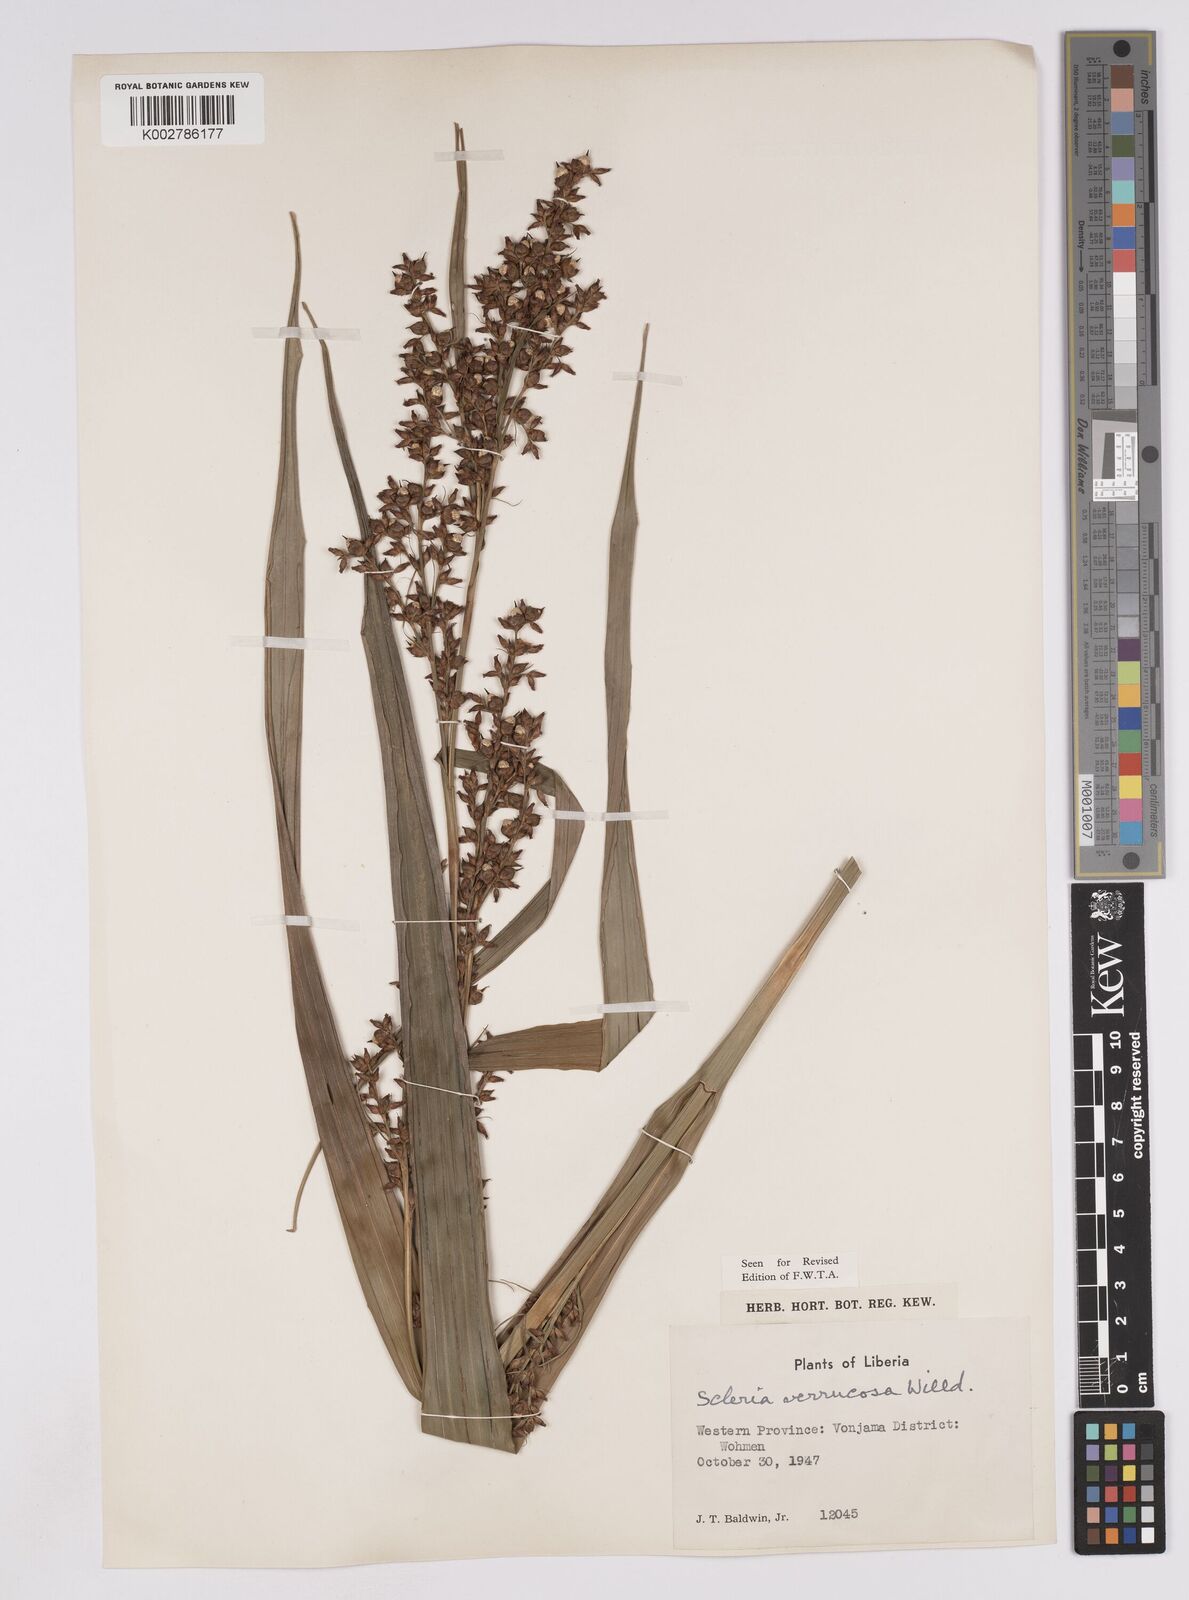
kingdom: Plantae
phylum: Tracheophyta
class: Liliopsida
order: Poales
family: Cyperaceae
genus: Scleria
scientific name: Scleria verrucosa
